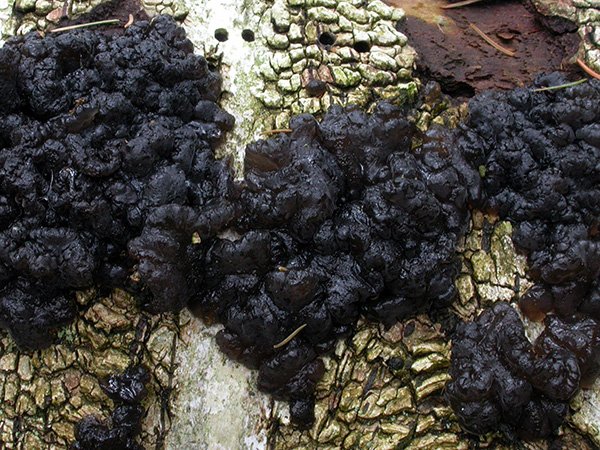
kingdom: Fungi
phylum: Basidiomycota
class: Agaricomycetes
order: Auriculariales
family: Auriculariaceae
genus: Exidia
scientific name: Exidia nigricans
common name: almindelig bævretop
